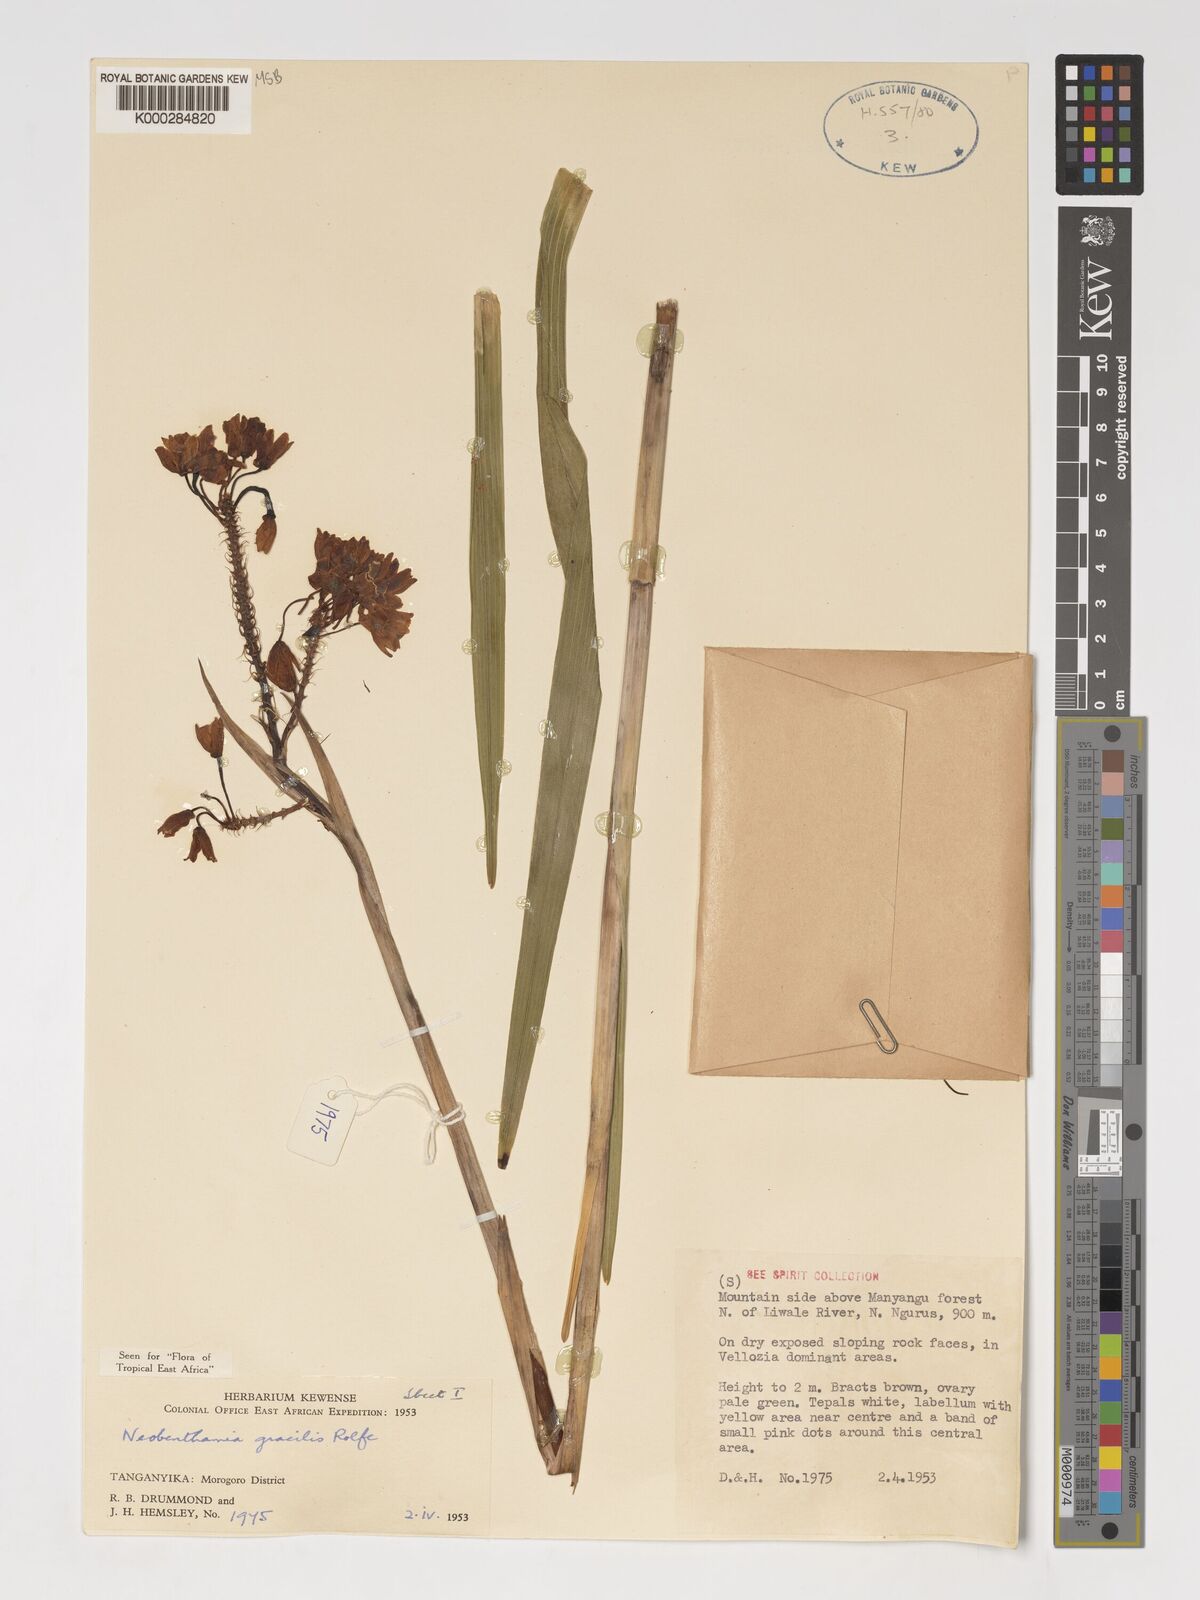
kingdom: Plantae
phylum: Tracheophyta
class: Liliopsida
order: Asparagales
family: Orchidaceae
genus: Polystachya
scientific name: Polystachya neobenthamia
